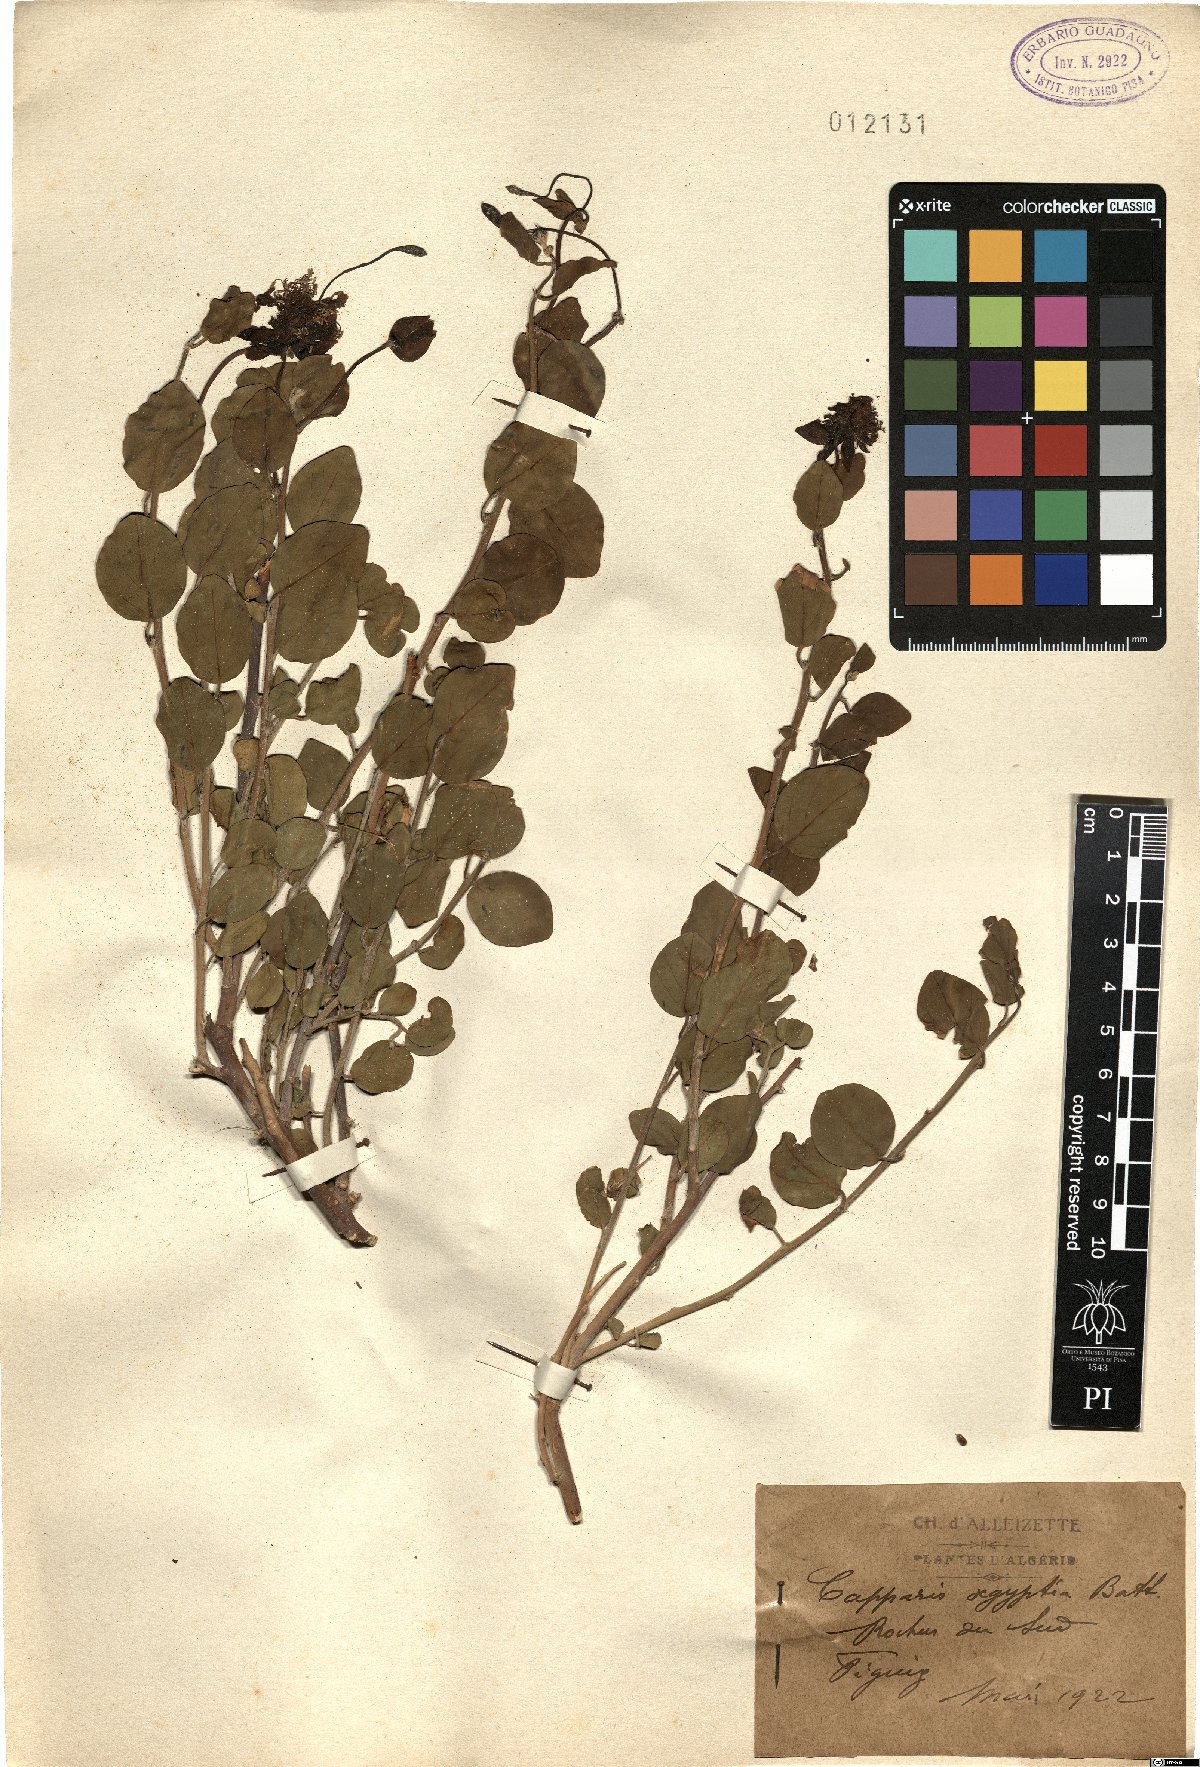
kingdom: Plantae
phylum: Tracheophyta
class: Magnoliopsida
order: Brassicales
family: Capparaceae
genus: Capparis
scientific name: Capparis spinosa
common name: Caper
